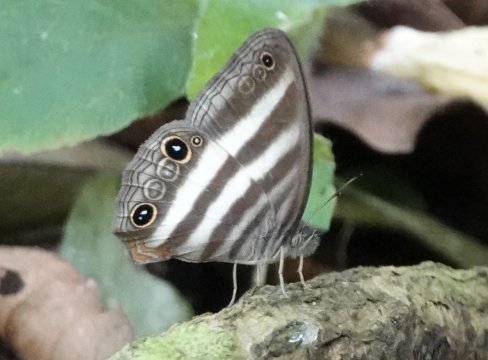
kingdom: Animalia
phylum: Arthropoda
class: Insecta
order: Lepidoptera
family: Nymphalidae
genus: Pareuptychia
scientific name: Pareuptychia hesione
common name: White Satyr
